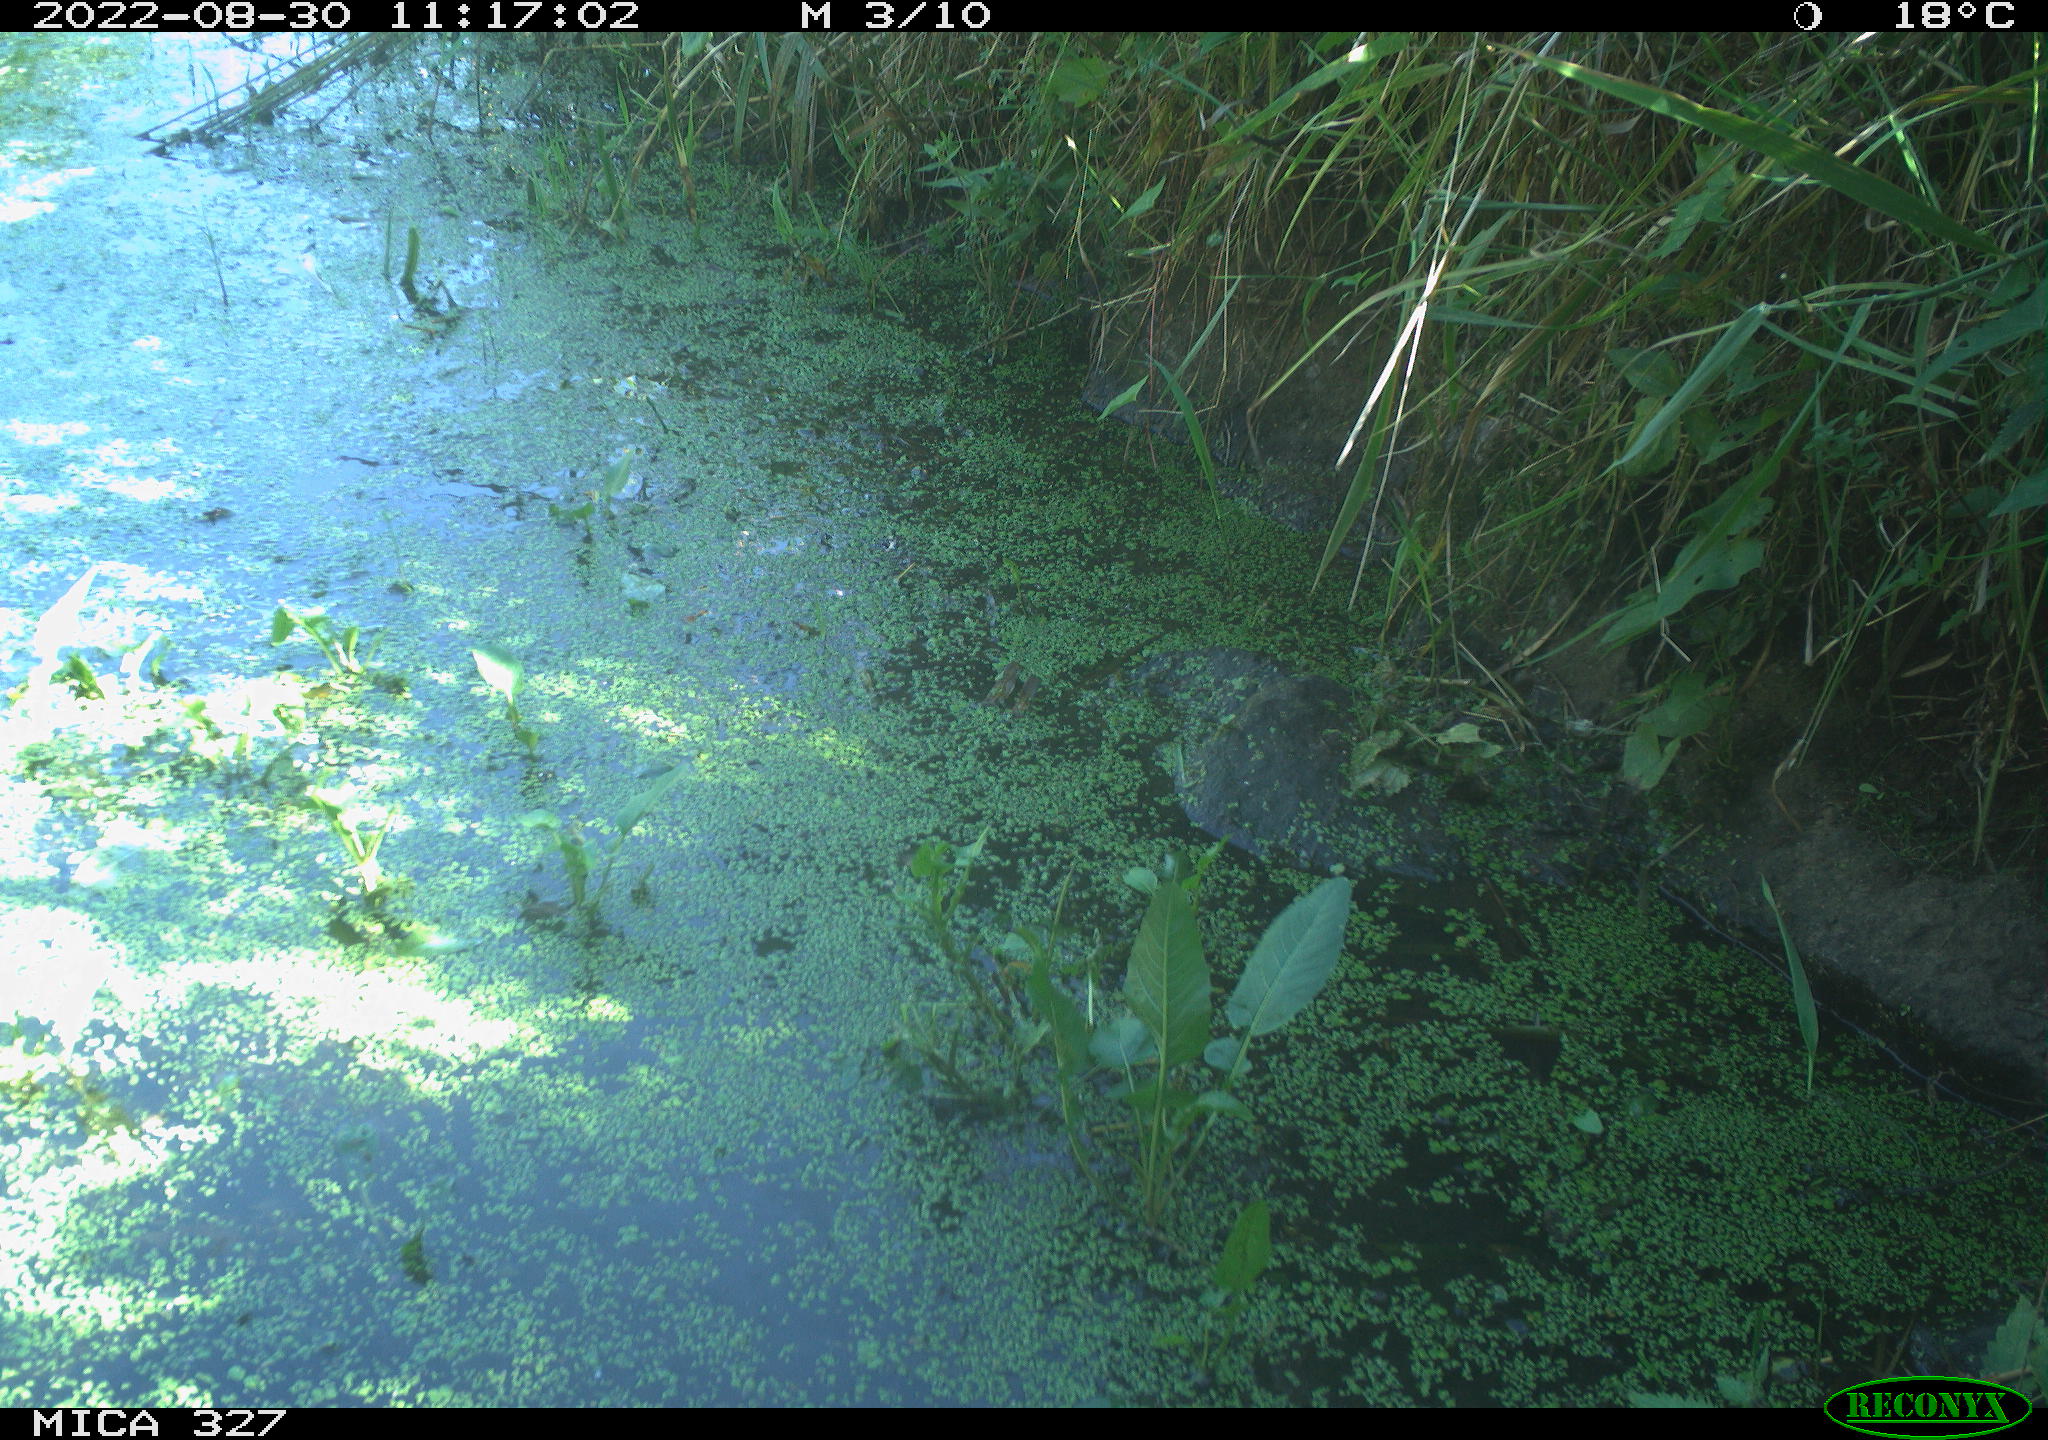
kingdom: Animalia
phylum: Chordata
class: Mammalia
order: Carnivora
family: Mustelidae
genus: Mustela
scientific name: Mustela putorius
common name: European polecat
